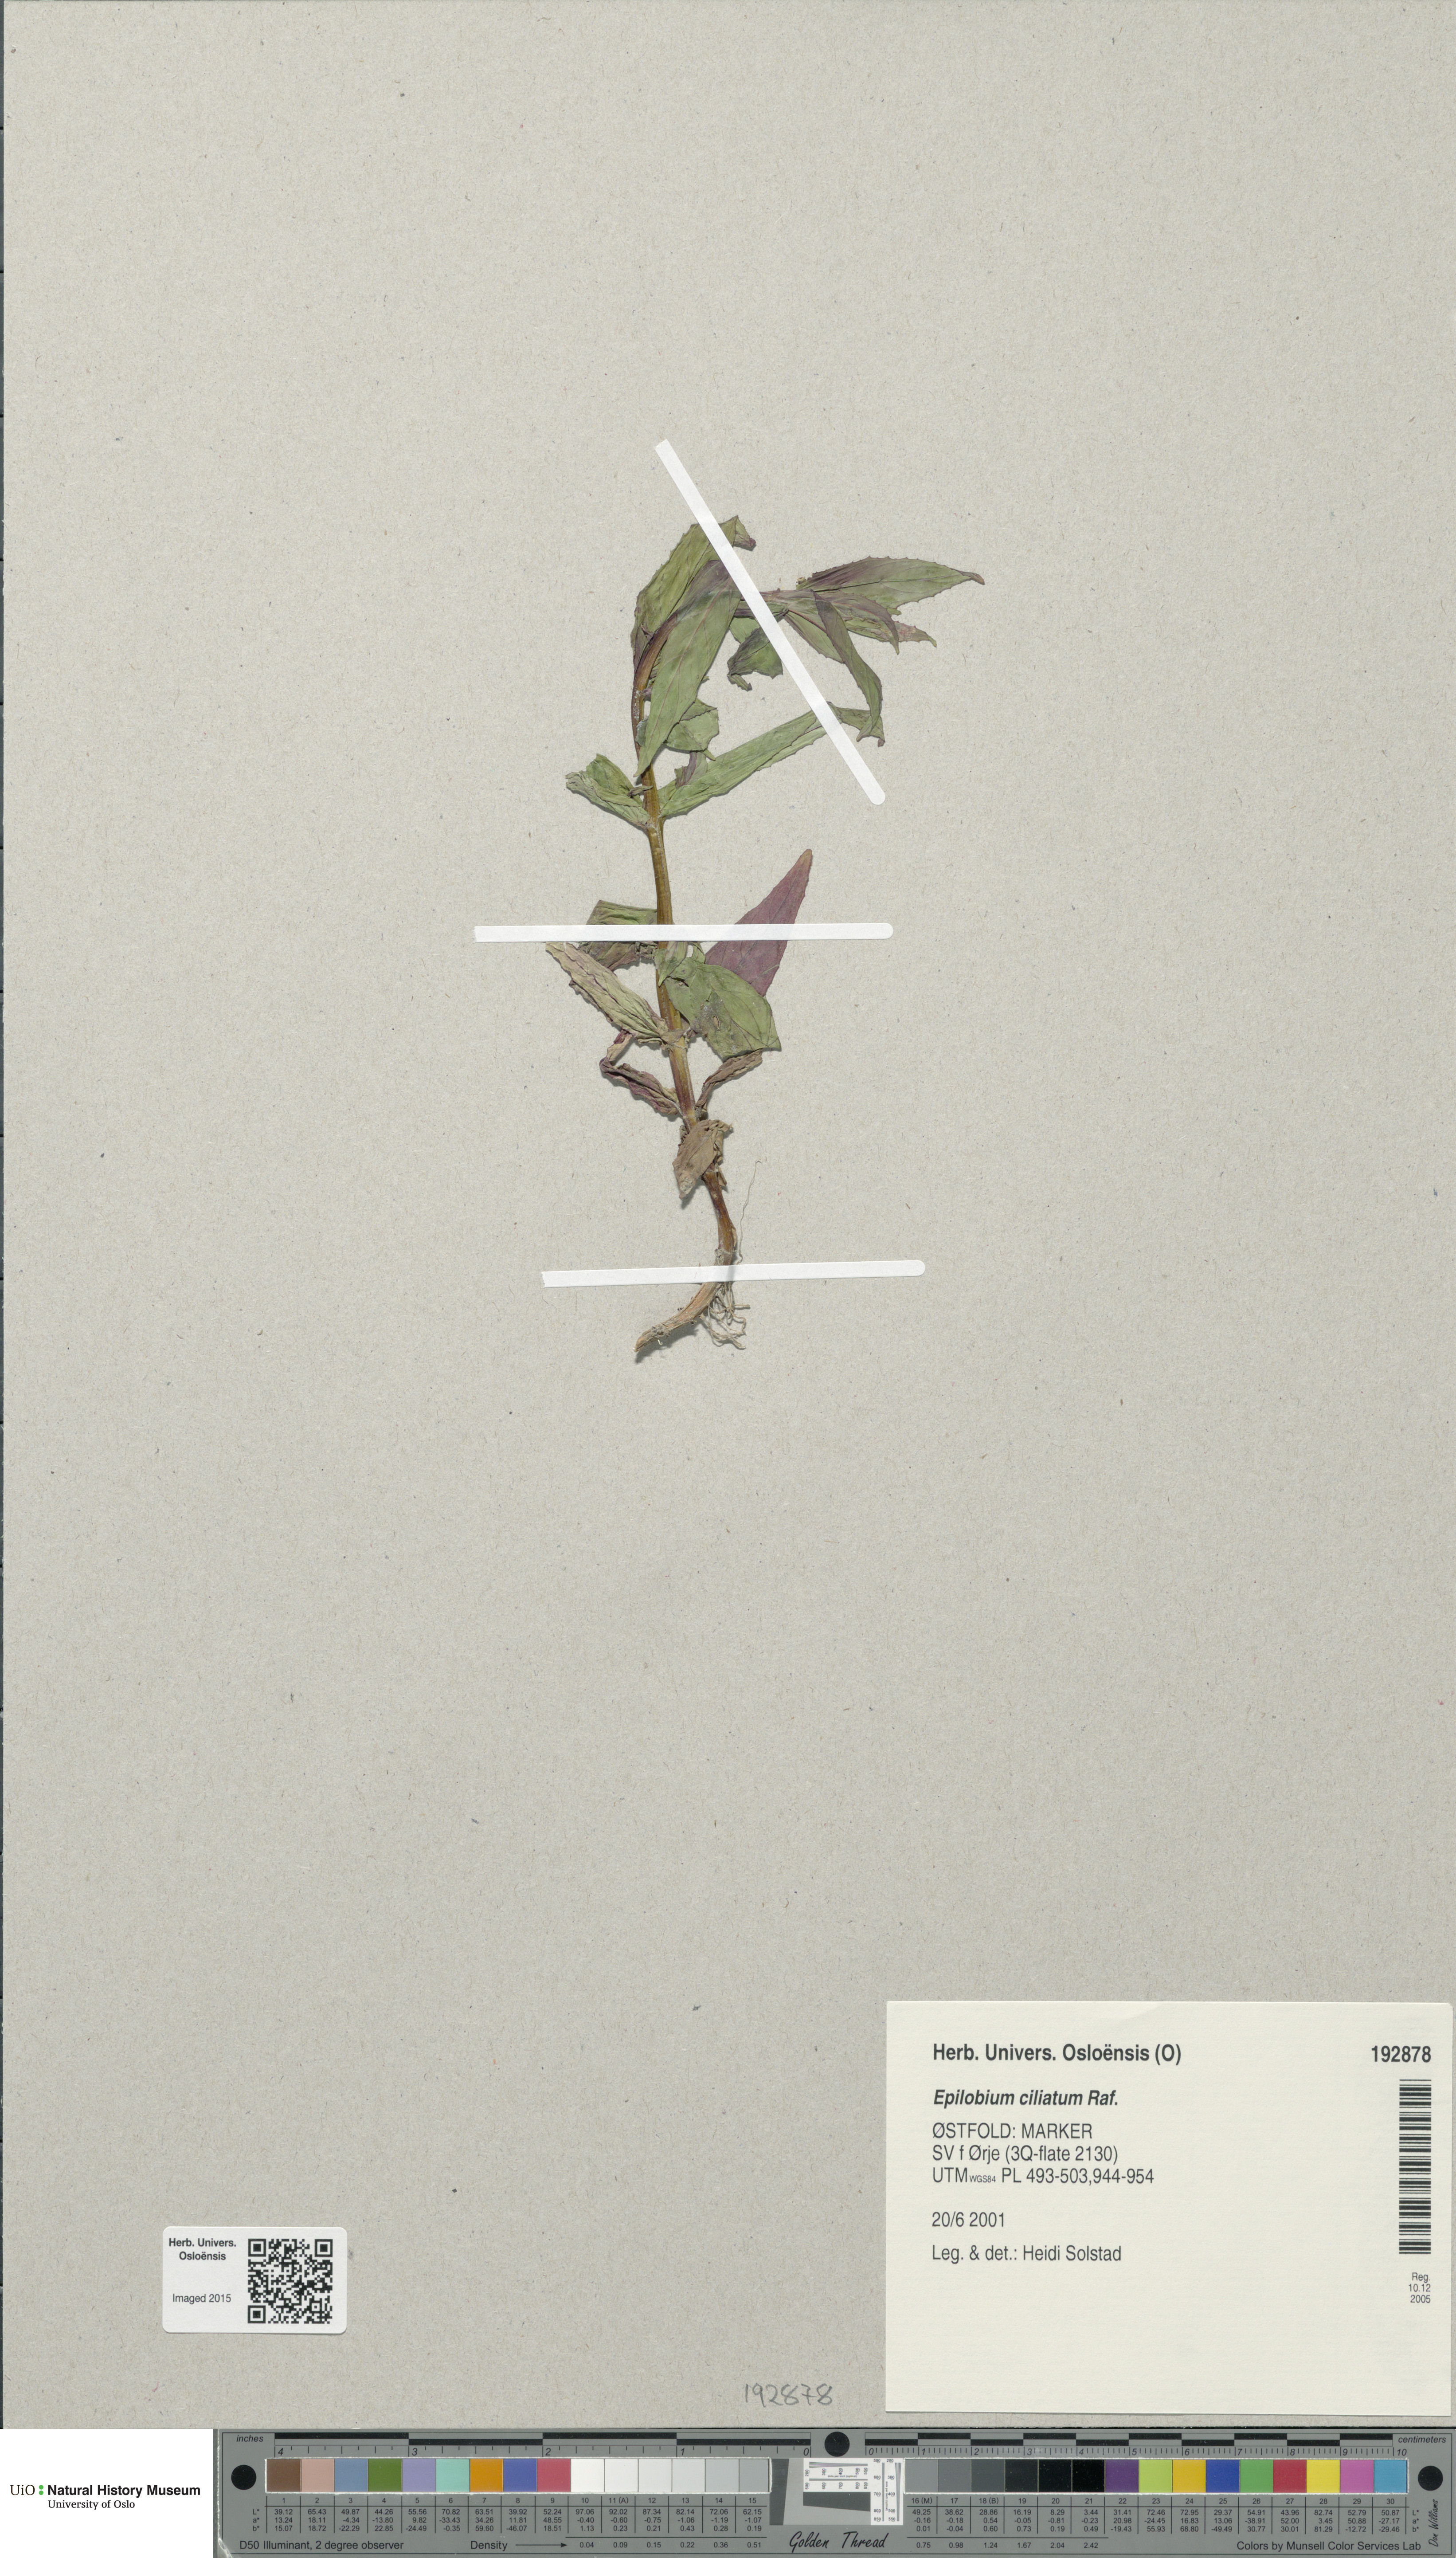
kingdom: Plantae
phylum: Tracheophyta
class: Magnoliopsida
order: Myrtales
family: Onagraceae
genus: Epilobium
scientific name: Epilobium ciliatum
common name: American willowherb
